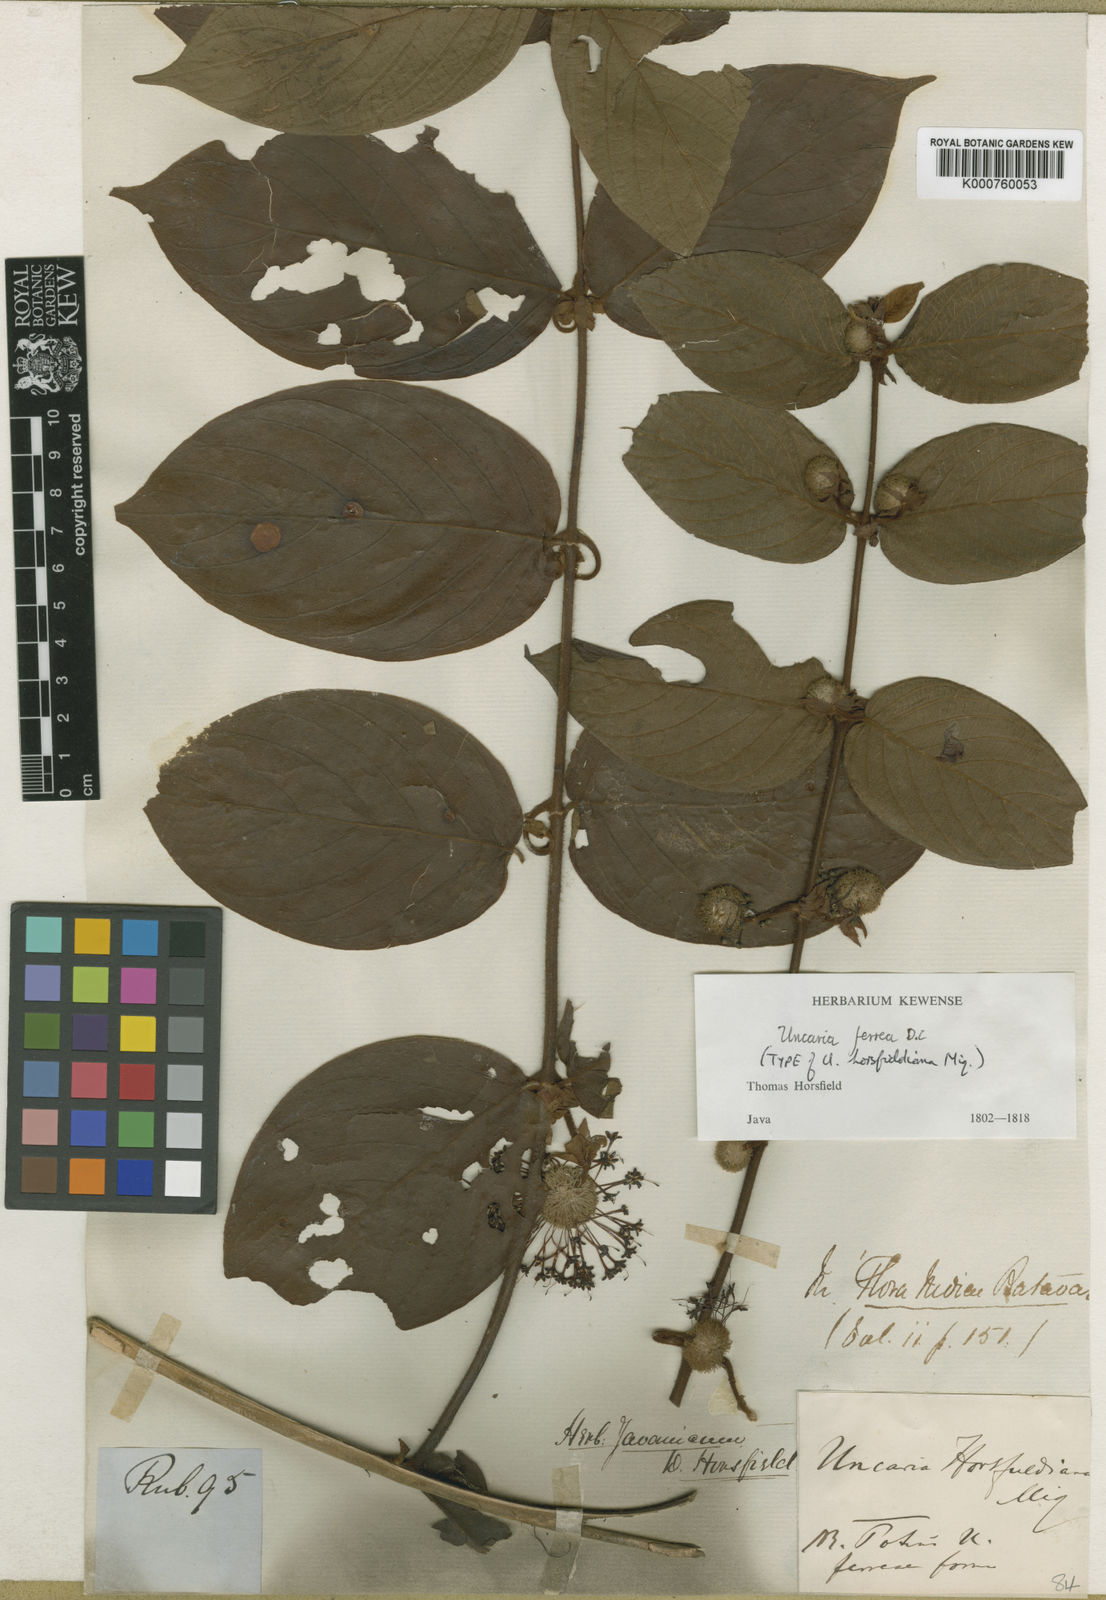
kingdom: Plantae
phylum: Tracheophyta
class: Magnoliopsida
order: Gentianales
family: Rubiaceae
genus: Uncaria
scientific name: Uncaria lanosa
